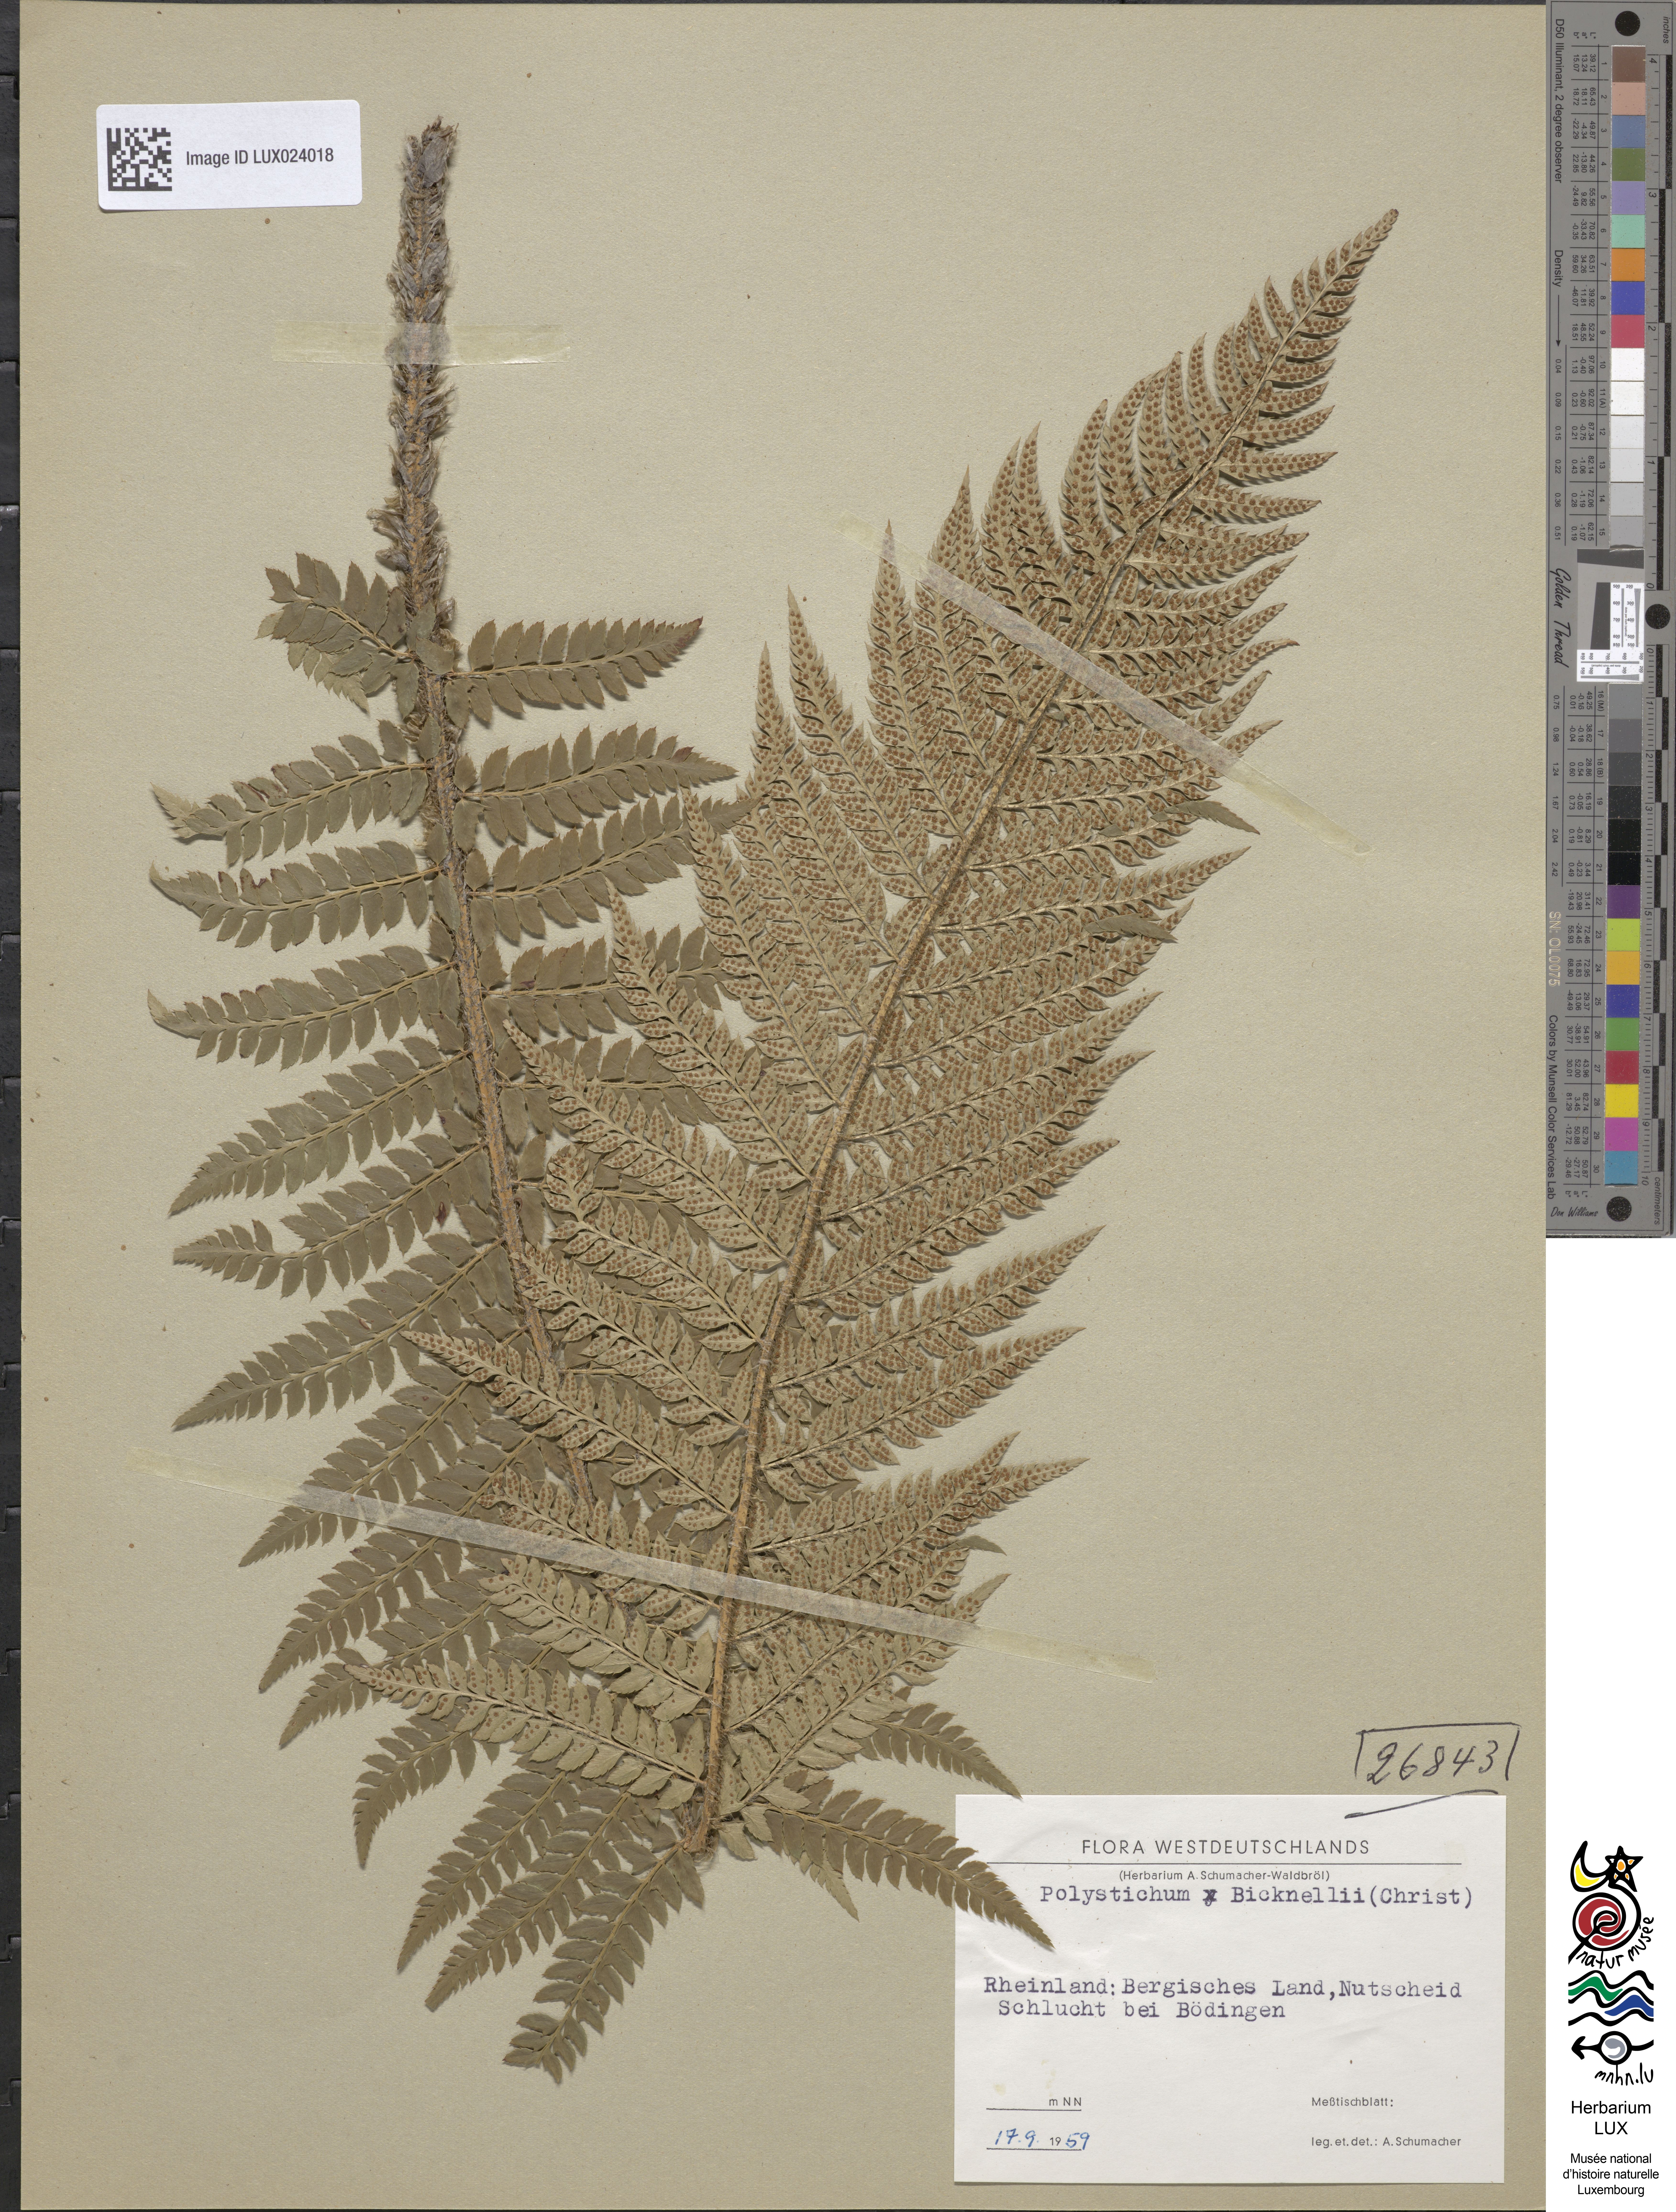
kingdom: Plantae
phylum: Tracheophyta
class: Polypodiopsida
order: Polypodiales
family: Dryopteridaceae
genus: Polystichum
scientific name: Polystichum
